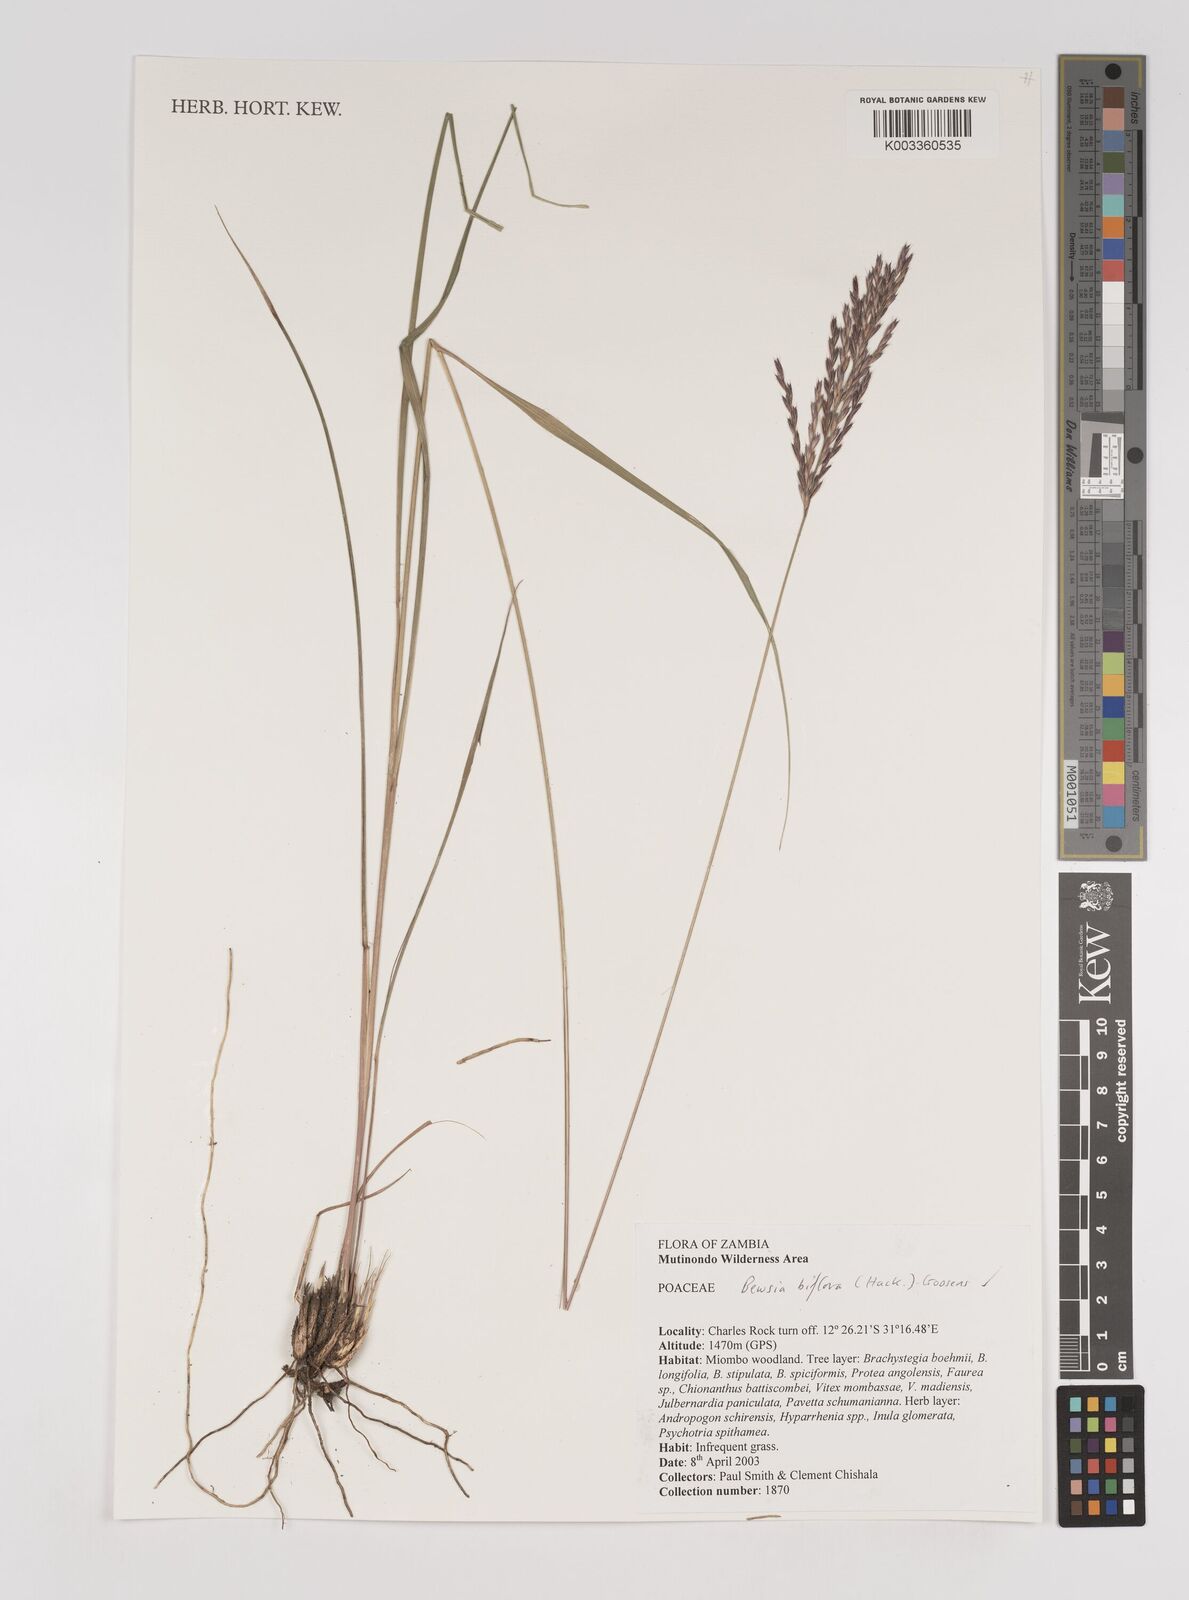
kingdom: Plantae
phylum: Tracheophyta
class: Liliopsida
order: Poales
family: Poaceae
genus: Bewsia
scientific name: Bewsia biflora
